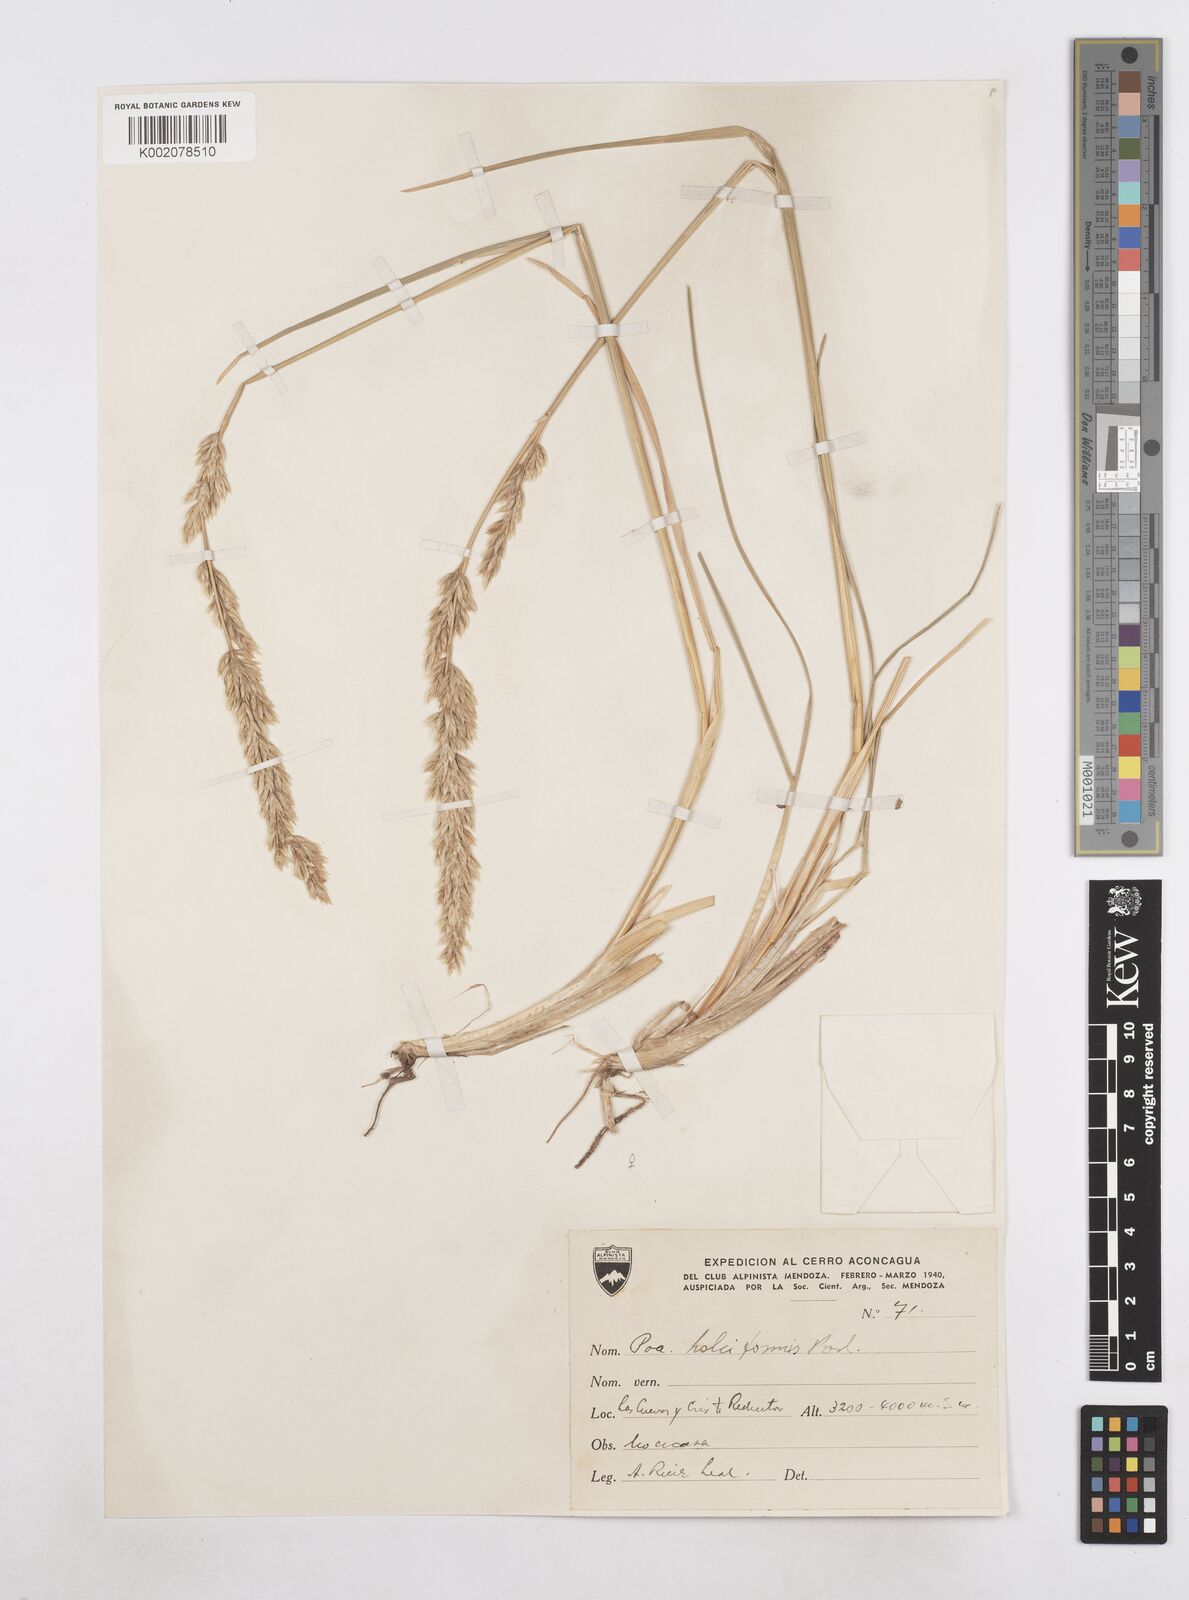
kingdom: Plantae
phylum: Tracheophyta
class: Liliopsida
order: Poales
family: Poaceae
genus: Poa
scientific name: Poa holciformis
